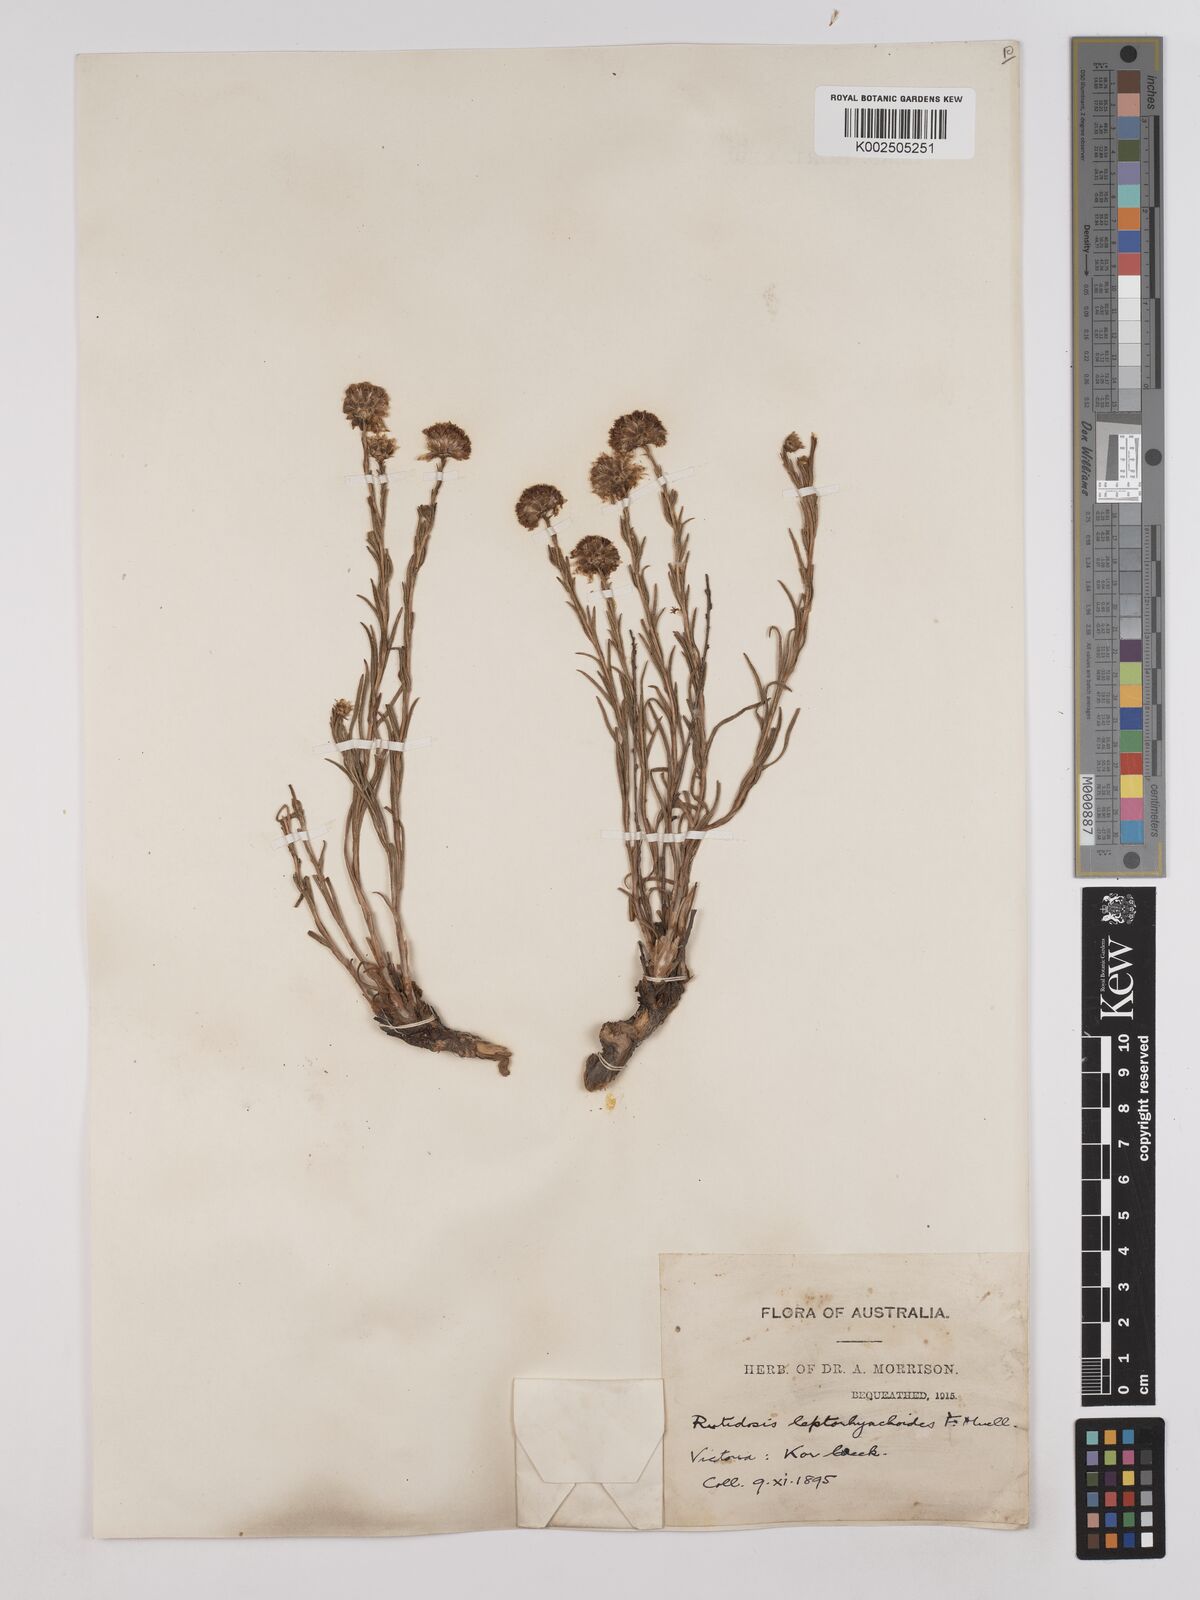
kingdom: Plantae
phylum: Tracheophyta
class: Magnoliopsida
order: Asterales
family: Asteraceae
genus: Rutidosis
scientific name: Rutidosis leptorrhynchoides
